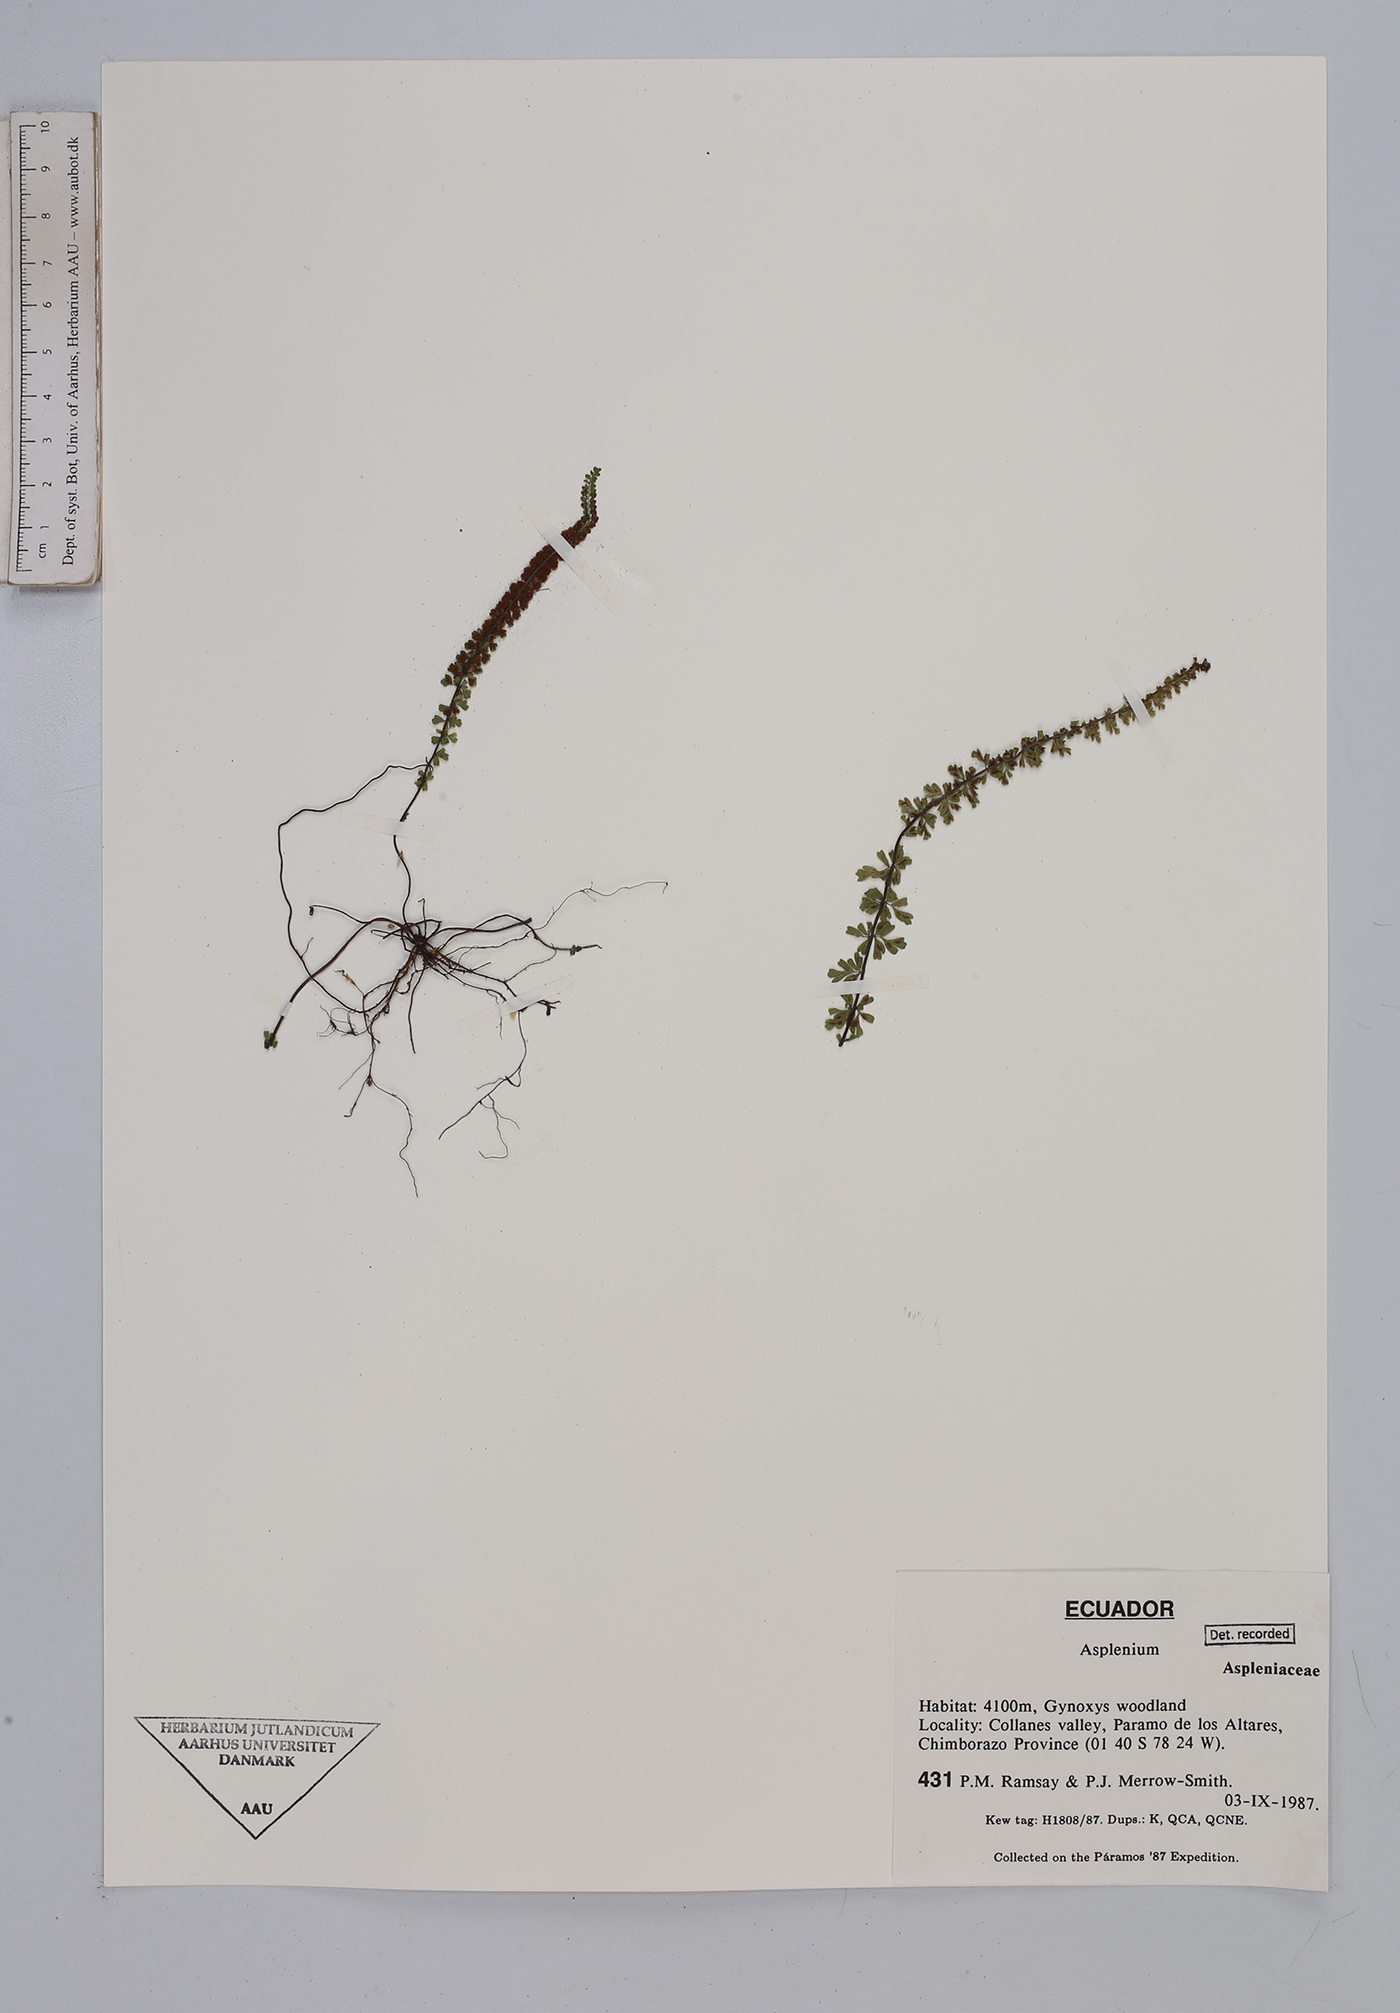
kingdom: Plantae
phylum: Tracheophyta
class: Polypodiopsida
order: Polypodiales
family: Aspleniaceae
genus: Asplenium
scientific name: Asplenium
